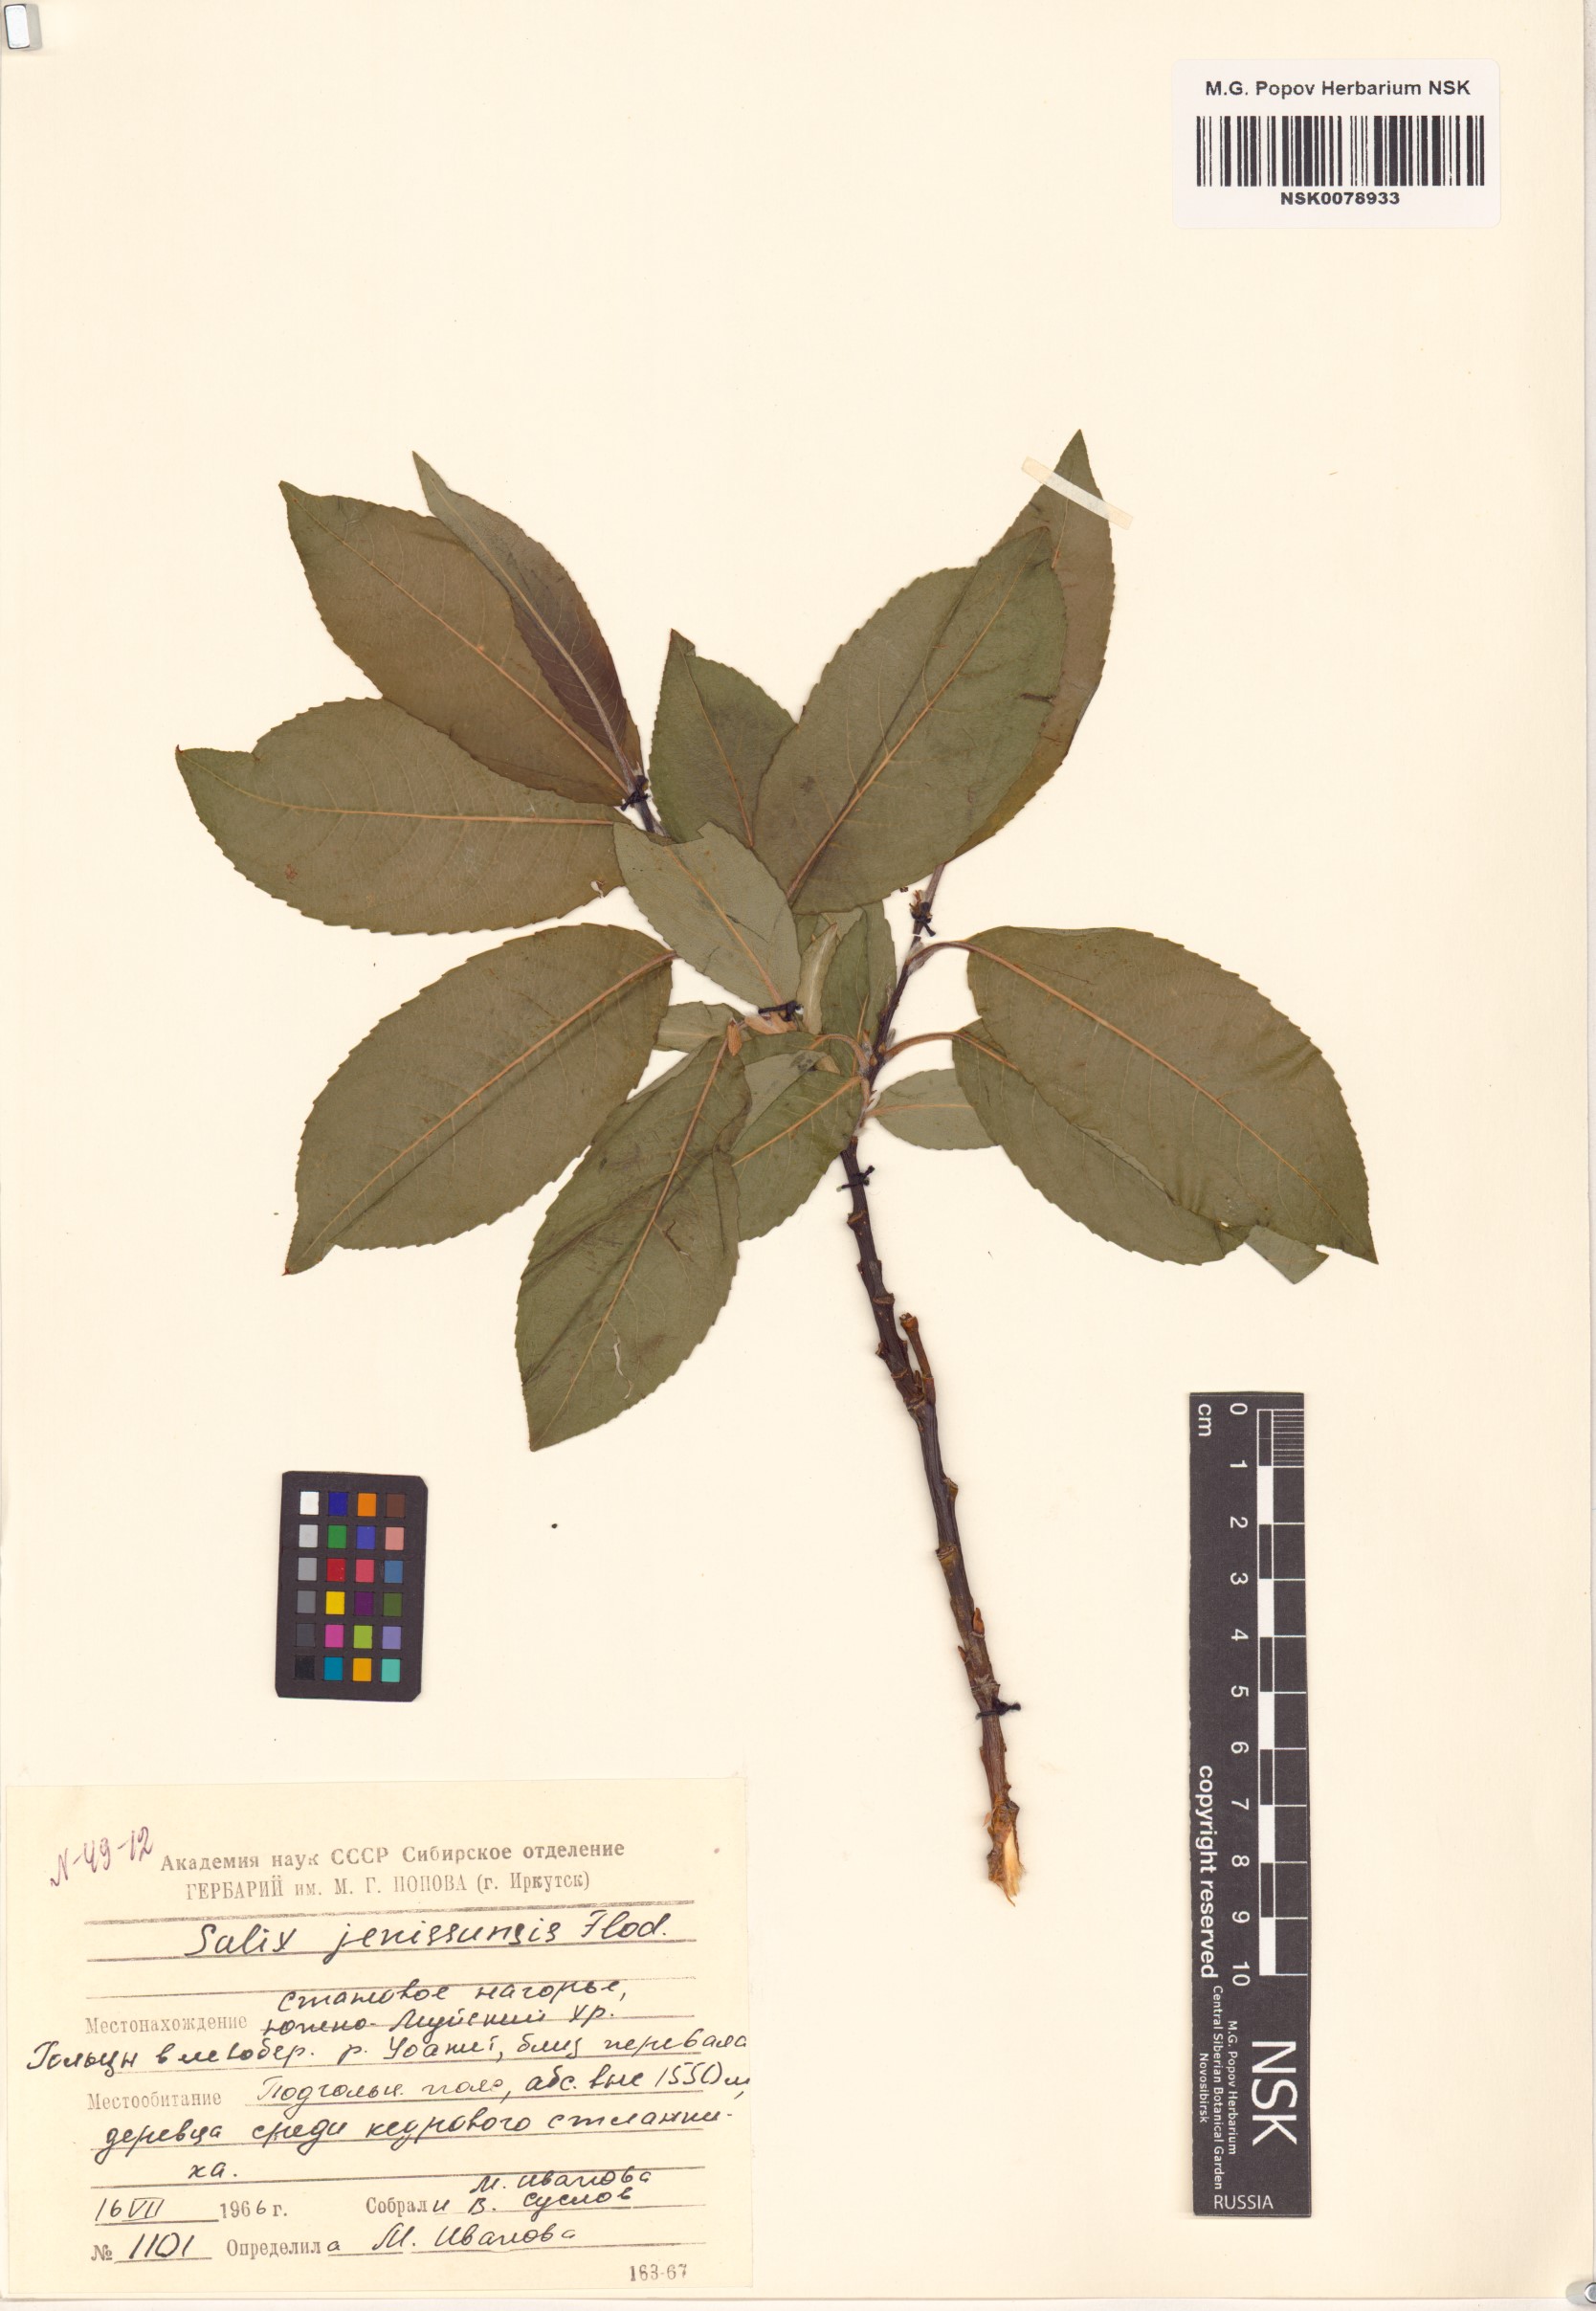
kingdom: Plantae
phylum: Tracheophyta
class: Magnoliopsida
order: Malpighiales
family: Salicaceae
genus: Salix
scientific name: Salix jenisseensis
